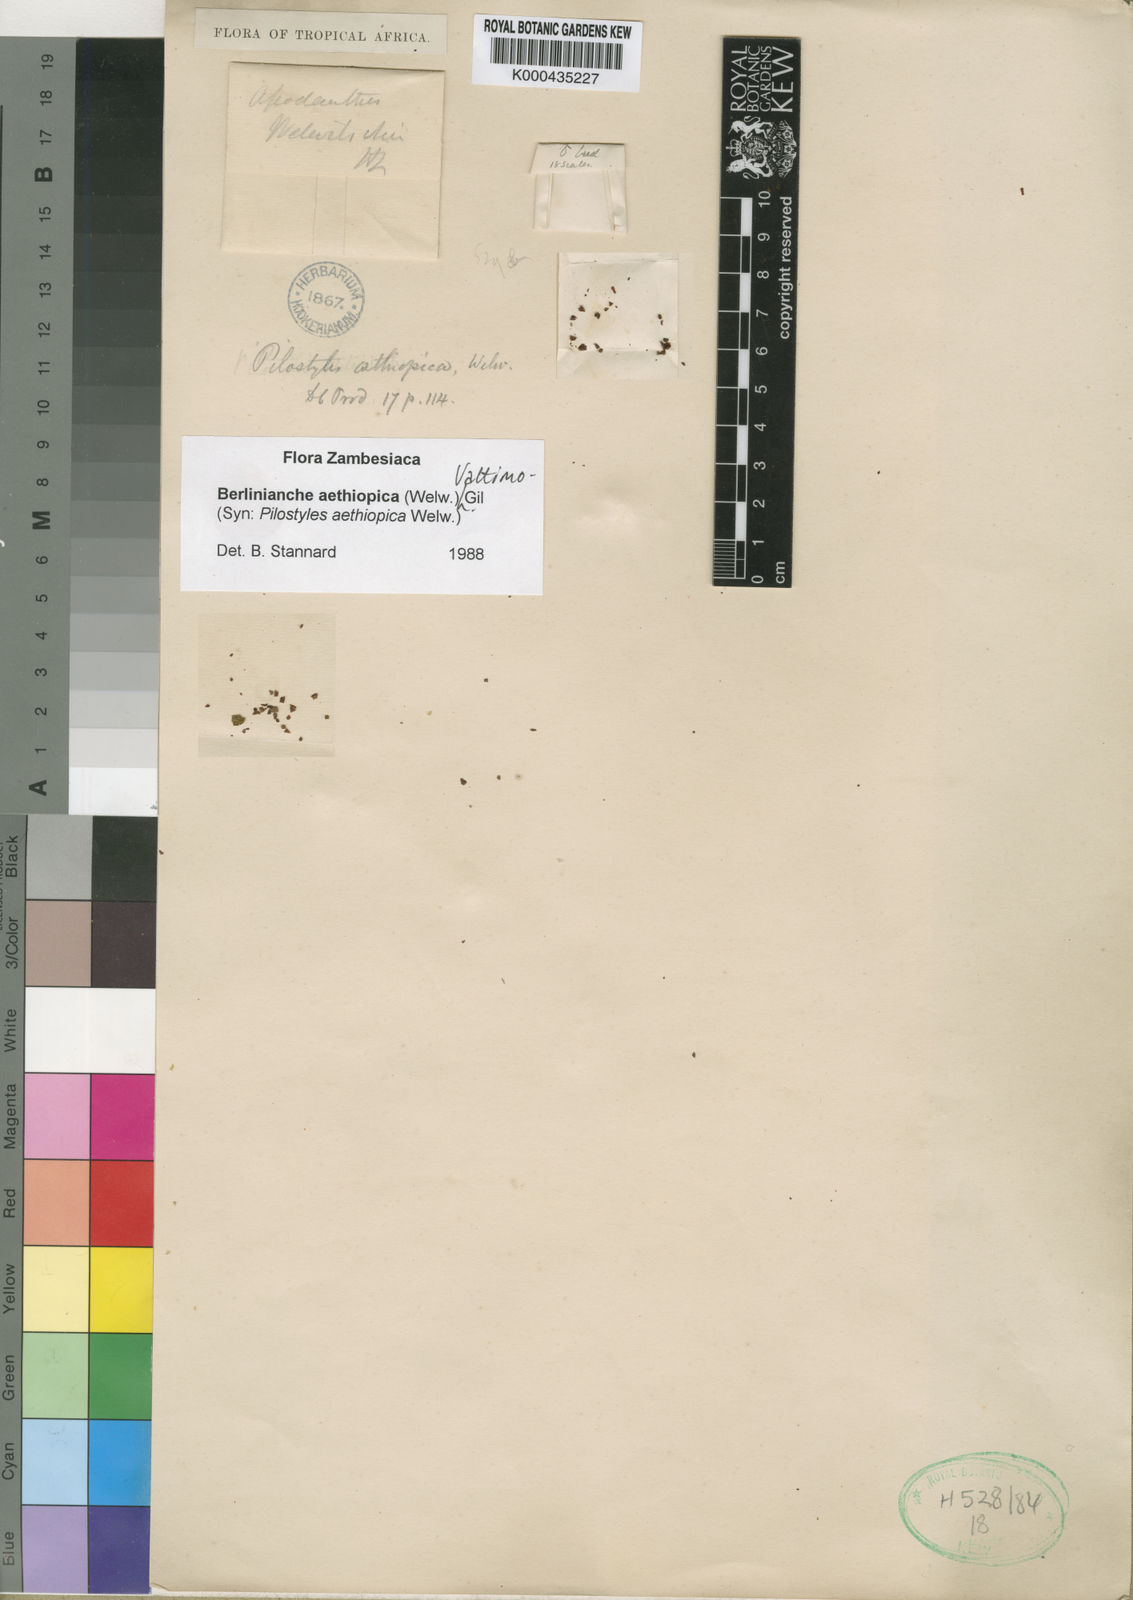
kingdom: Plantae
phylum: Tracheophyta
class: Magnoliopsida
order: Cucurbitales
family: Apodanthaceae
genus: Pilostyles
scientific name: Pilostyles
